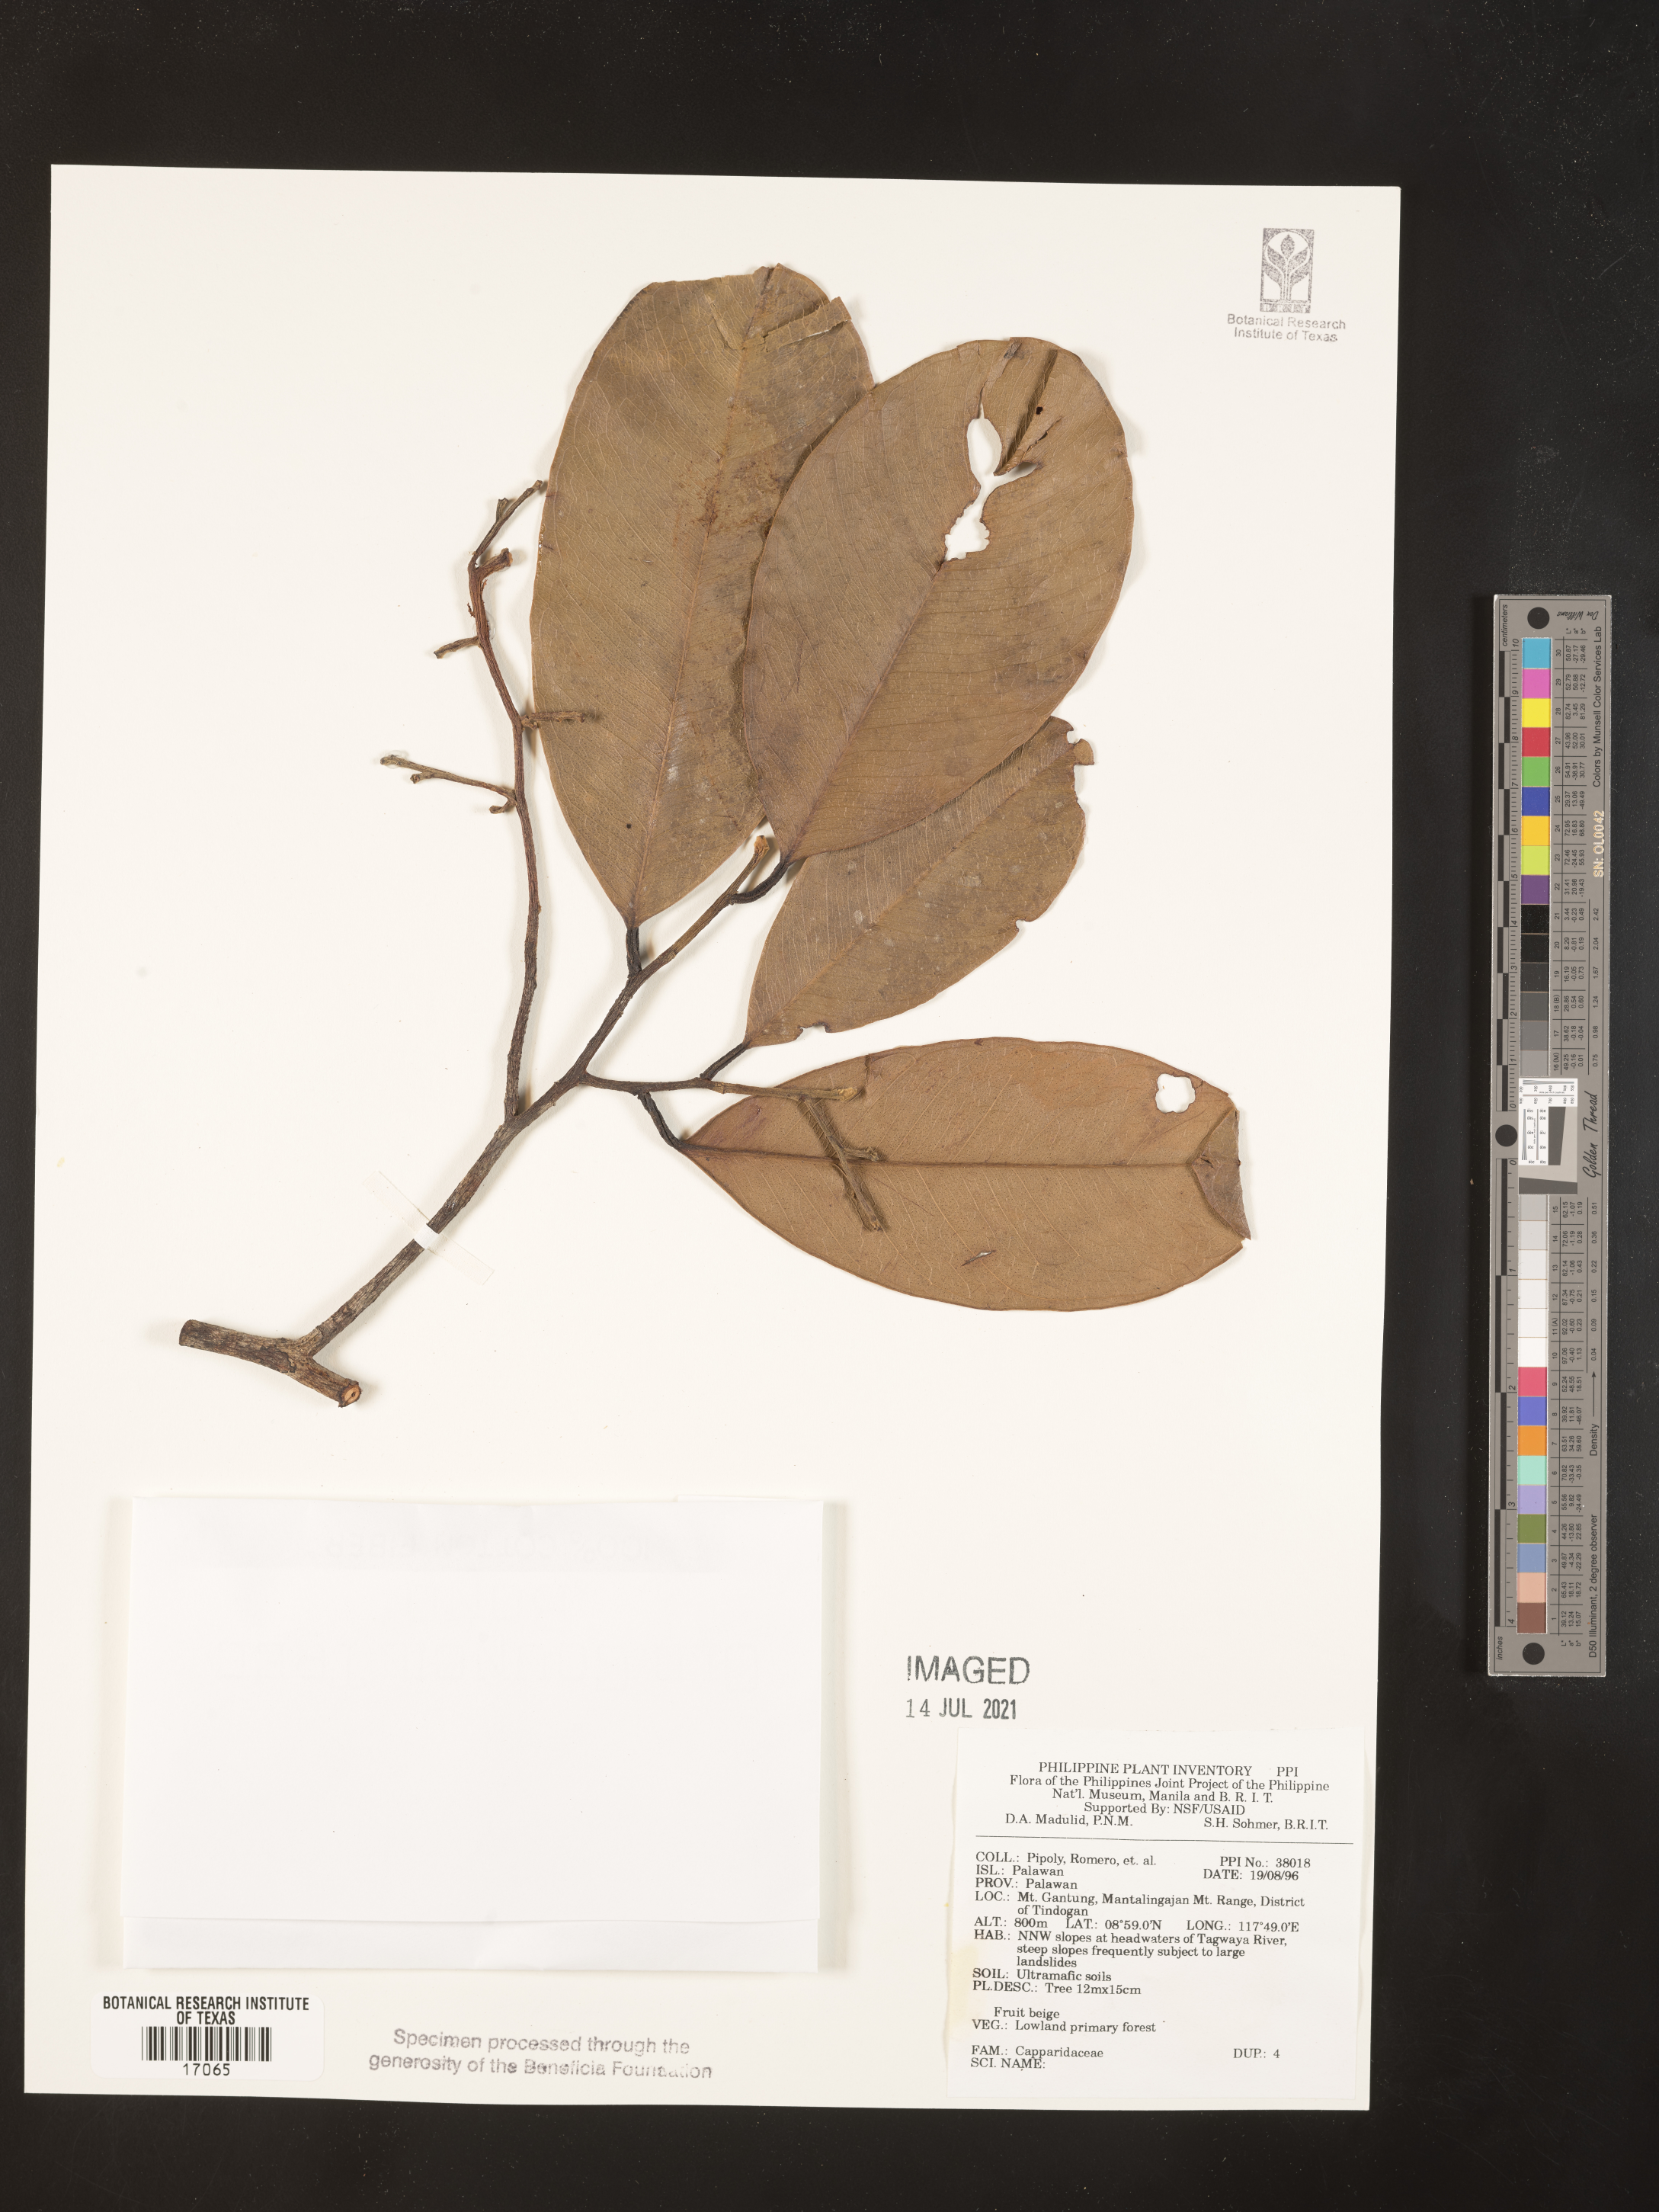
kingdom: Plantae
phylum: Tracheophyta
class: Magnoliopsida
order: Brassicales
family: Capparaceae
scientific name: Capparaceae
